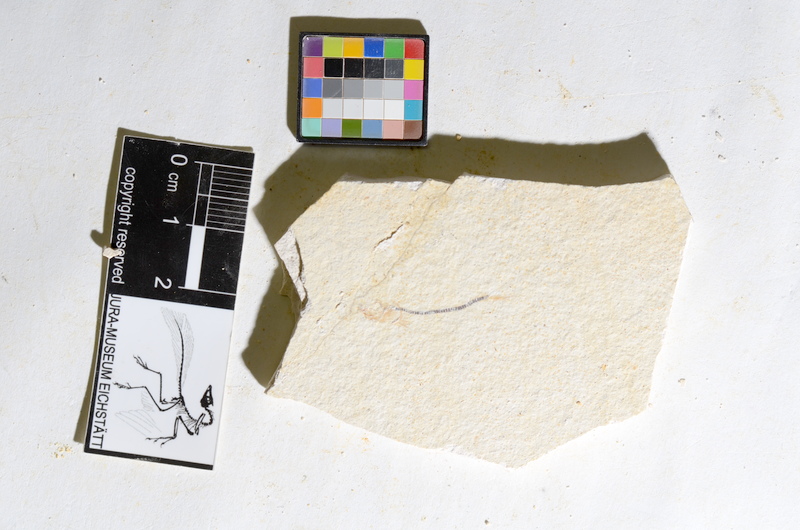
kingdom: Animalia
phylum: Chordata
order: Salmoniformes
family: Orthogonikleithridae
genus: Orthogonikleithrus
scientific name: Orthogonikleithrus hoelli
